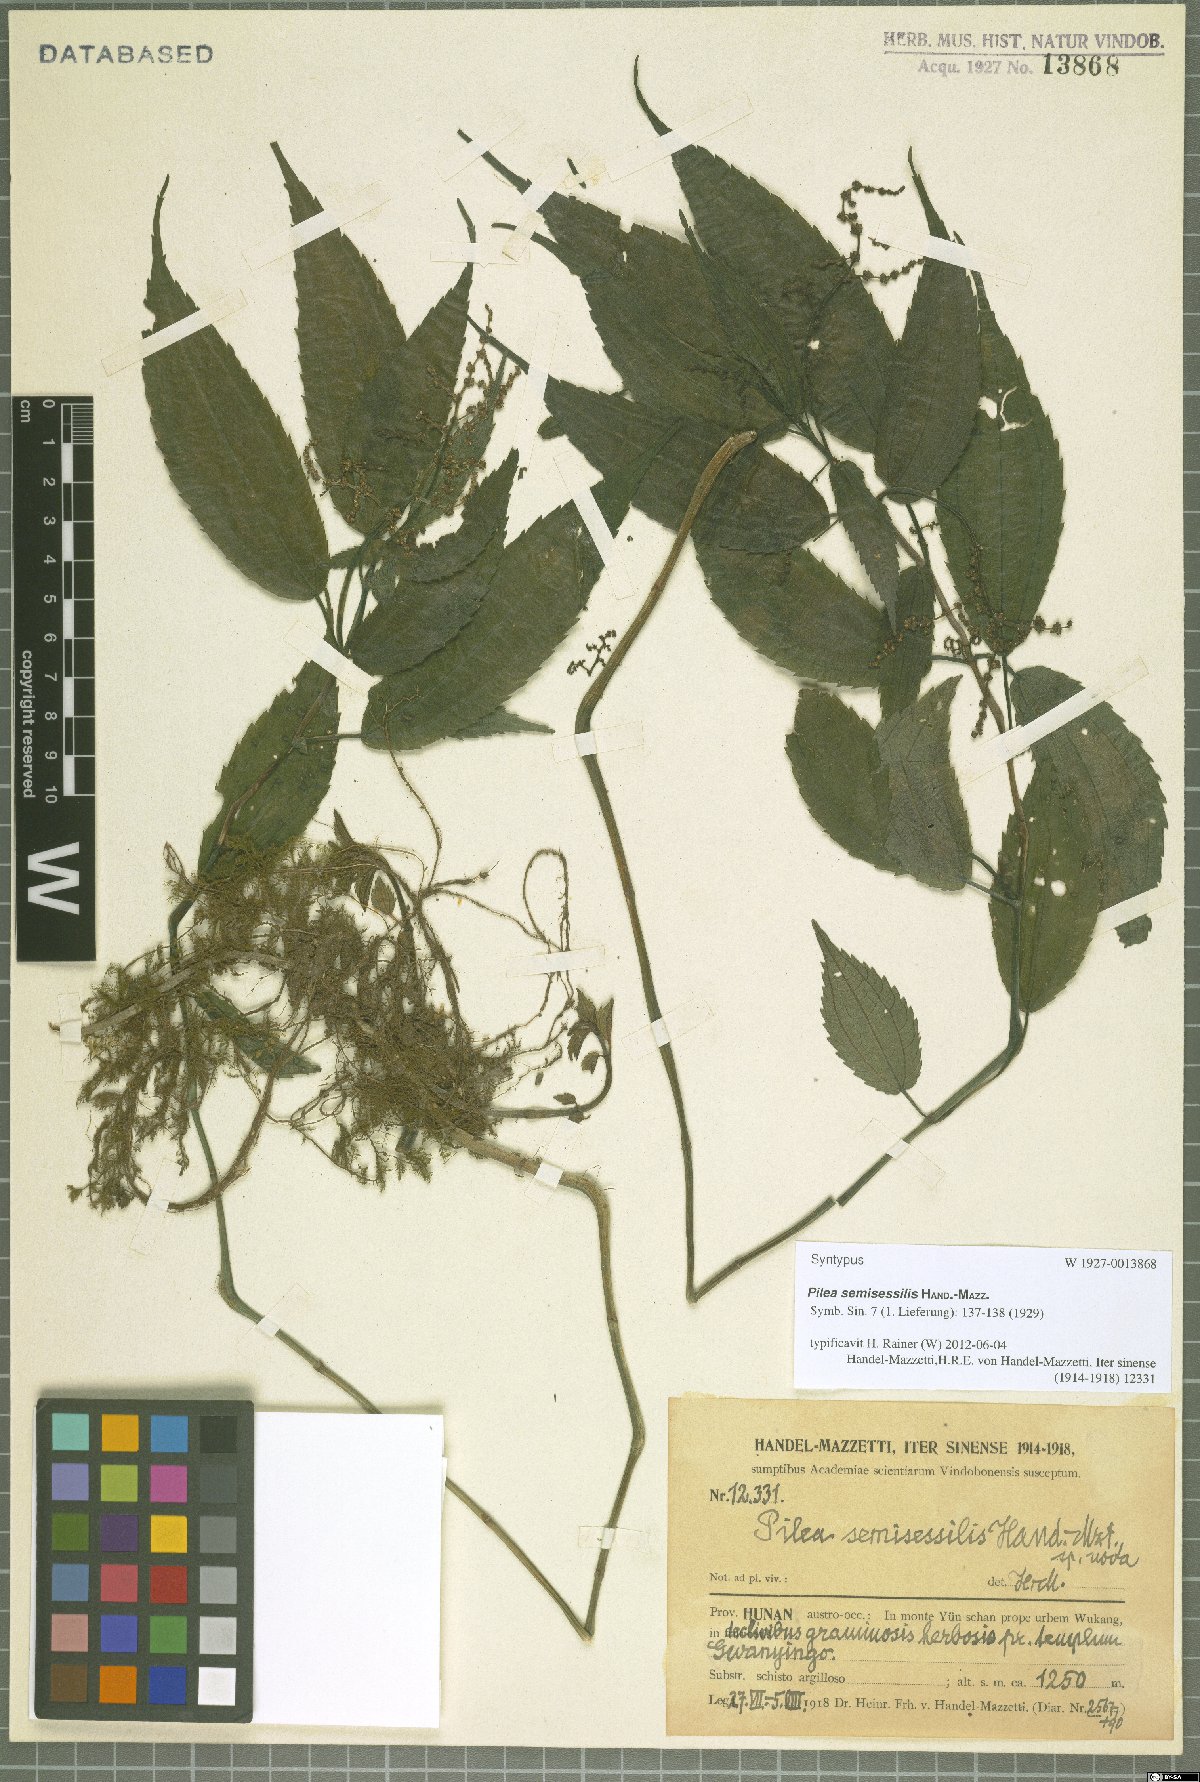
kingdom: Plantae
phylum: Tracheophyta
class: Magnoliopsida
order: Rosales
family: Urticaceae
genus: Pilea
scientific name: Pilea semisessilis
